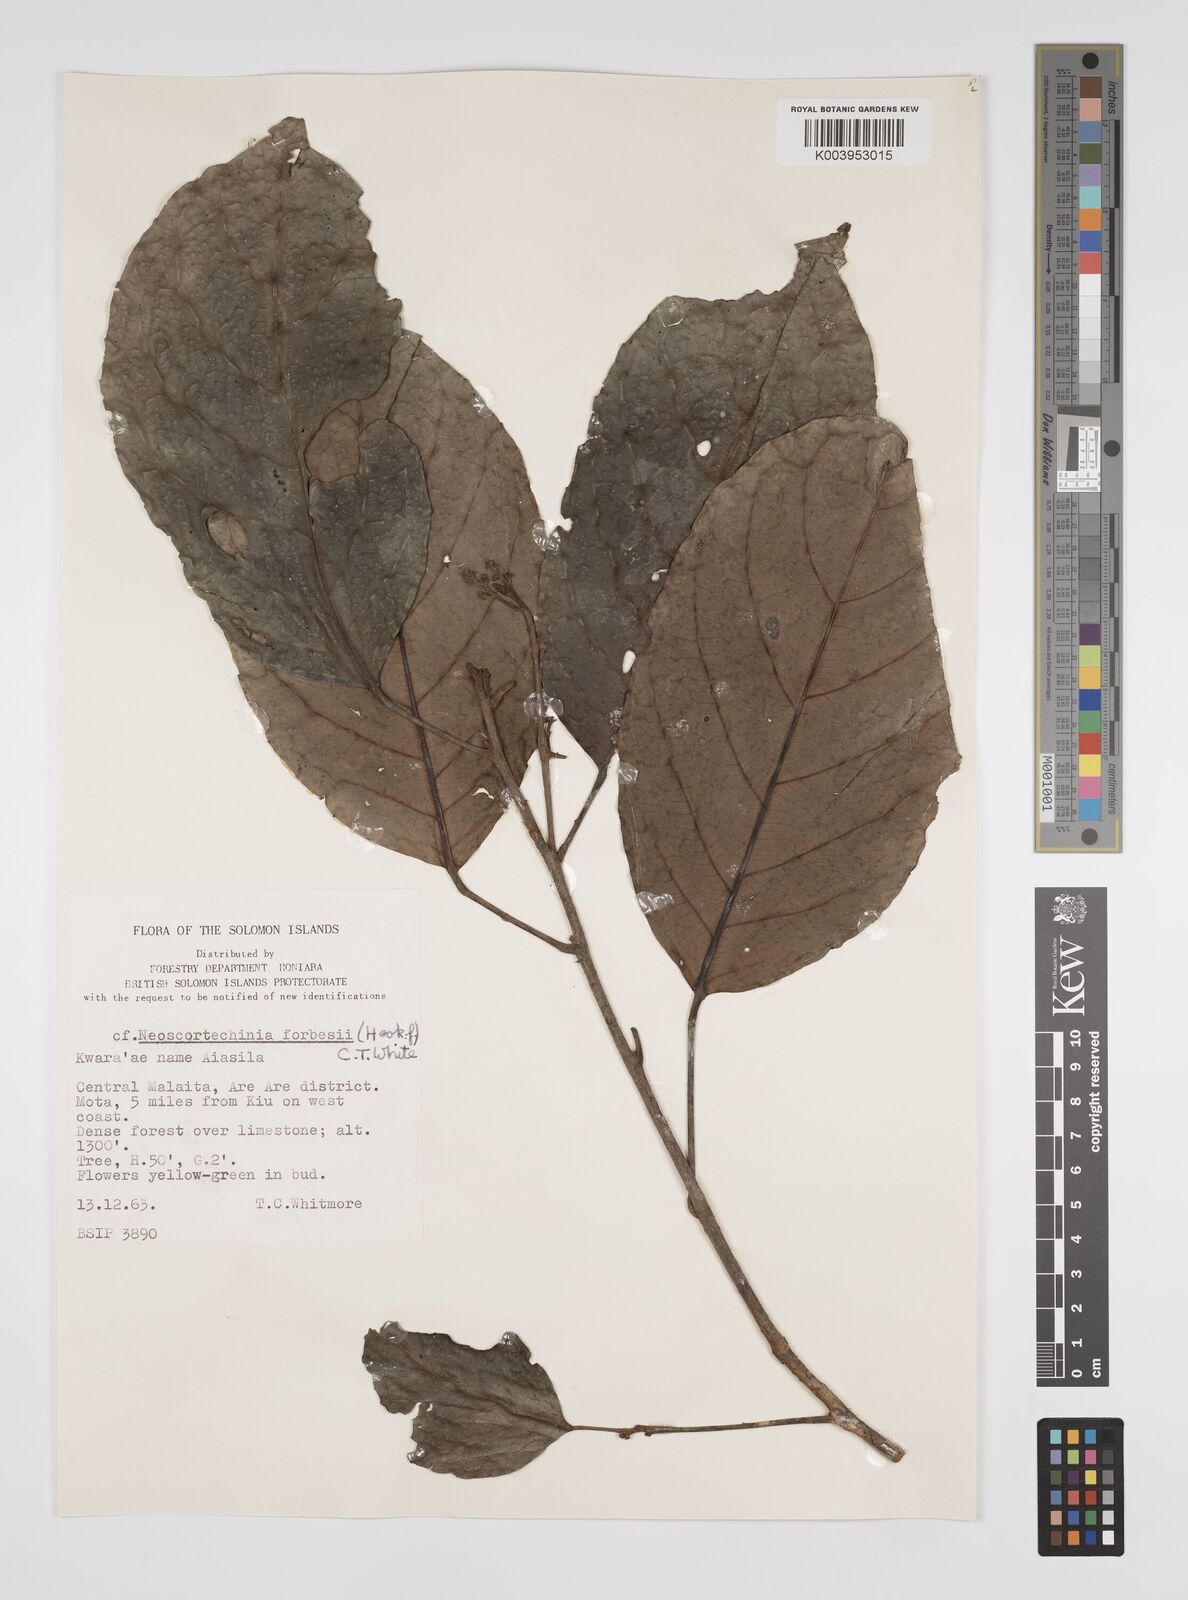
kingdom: Plantae
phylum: Tracheophyta
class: Magnoliopsida
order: Malpighiales
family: Euphorbiaceae
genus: Neoscortechinia
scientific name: Neoscortechinia forbesii
